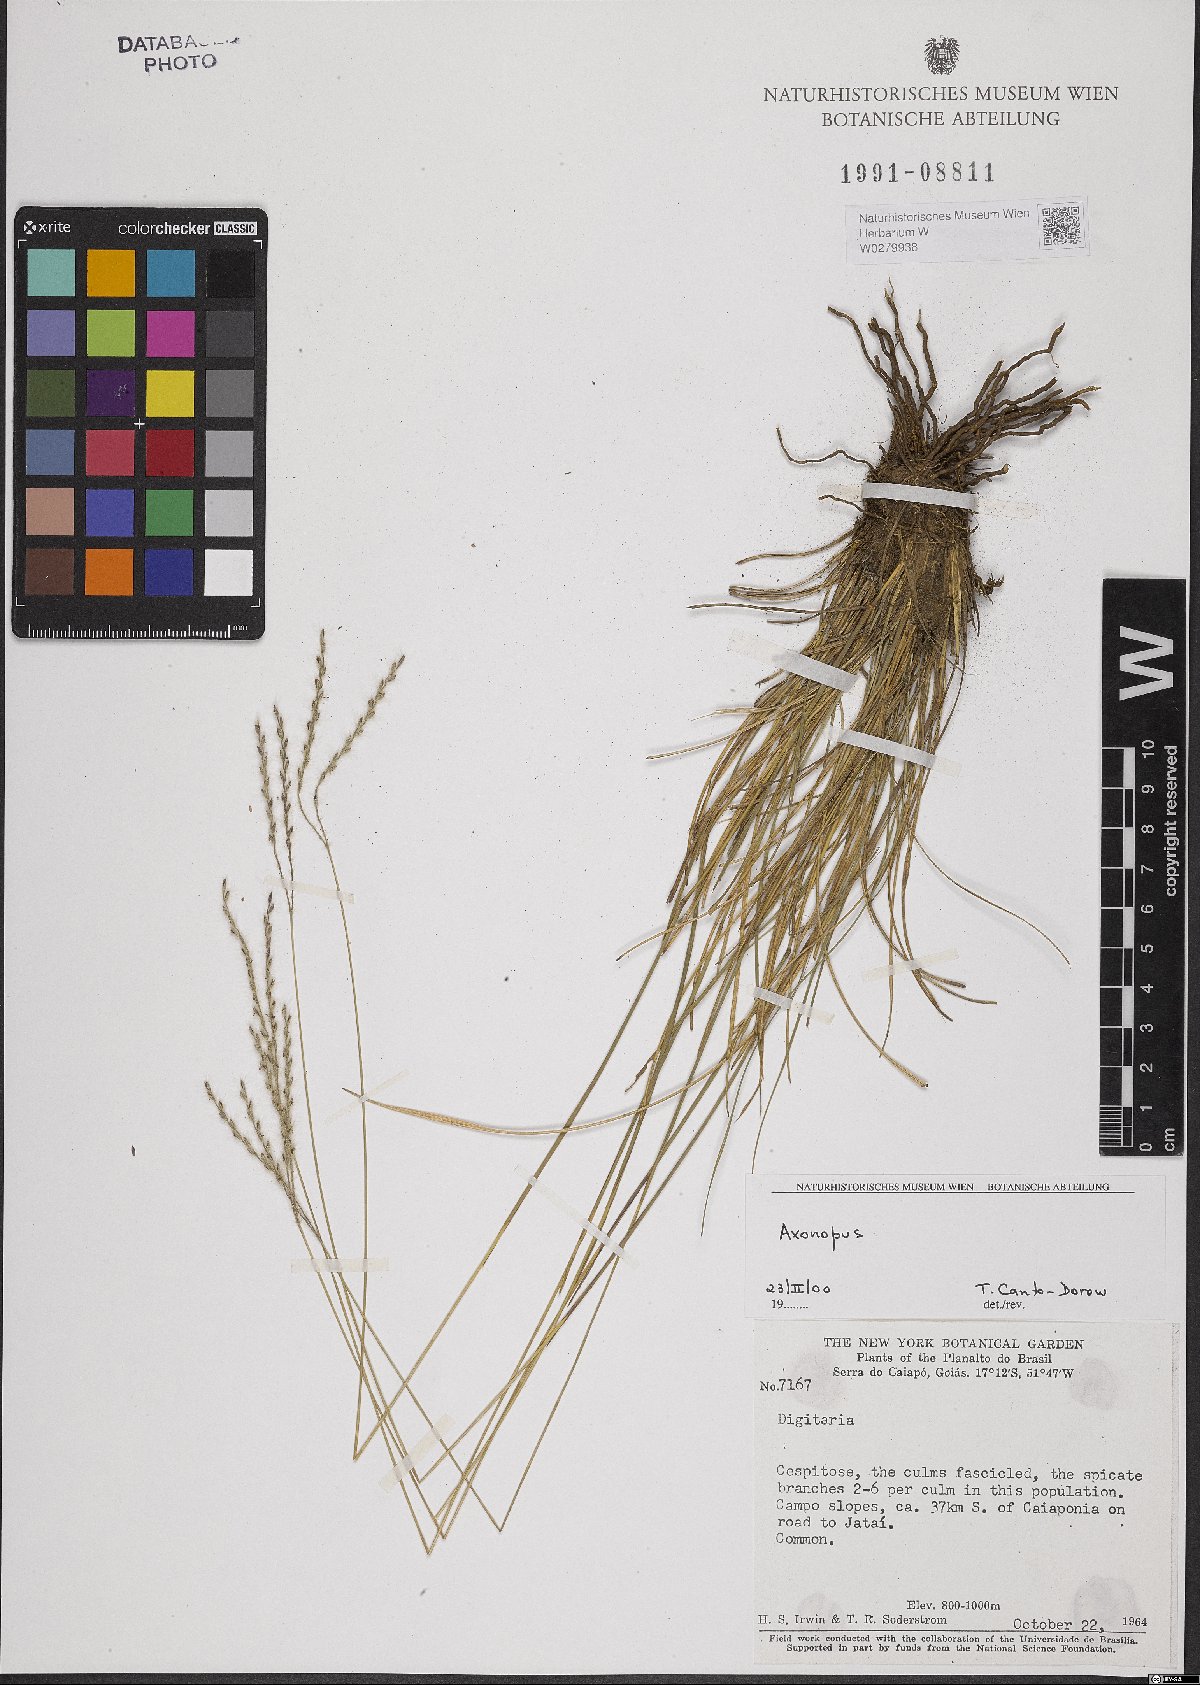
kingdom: Plantae
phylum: Tracheophyta
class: Liliopsida
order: Poales
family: Poaceae
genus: Axonopus
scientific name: Axonopus
